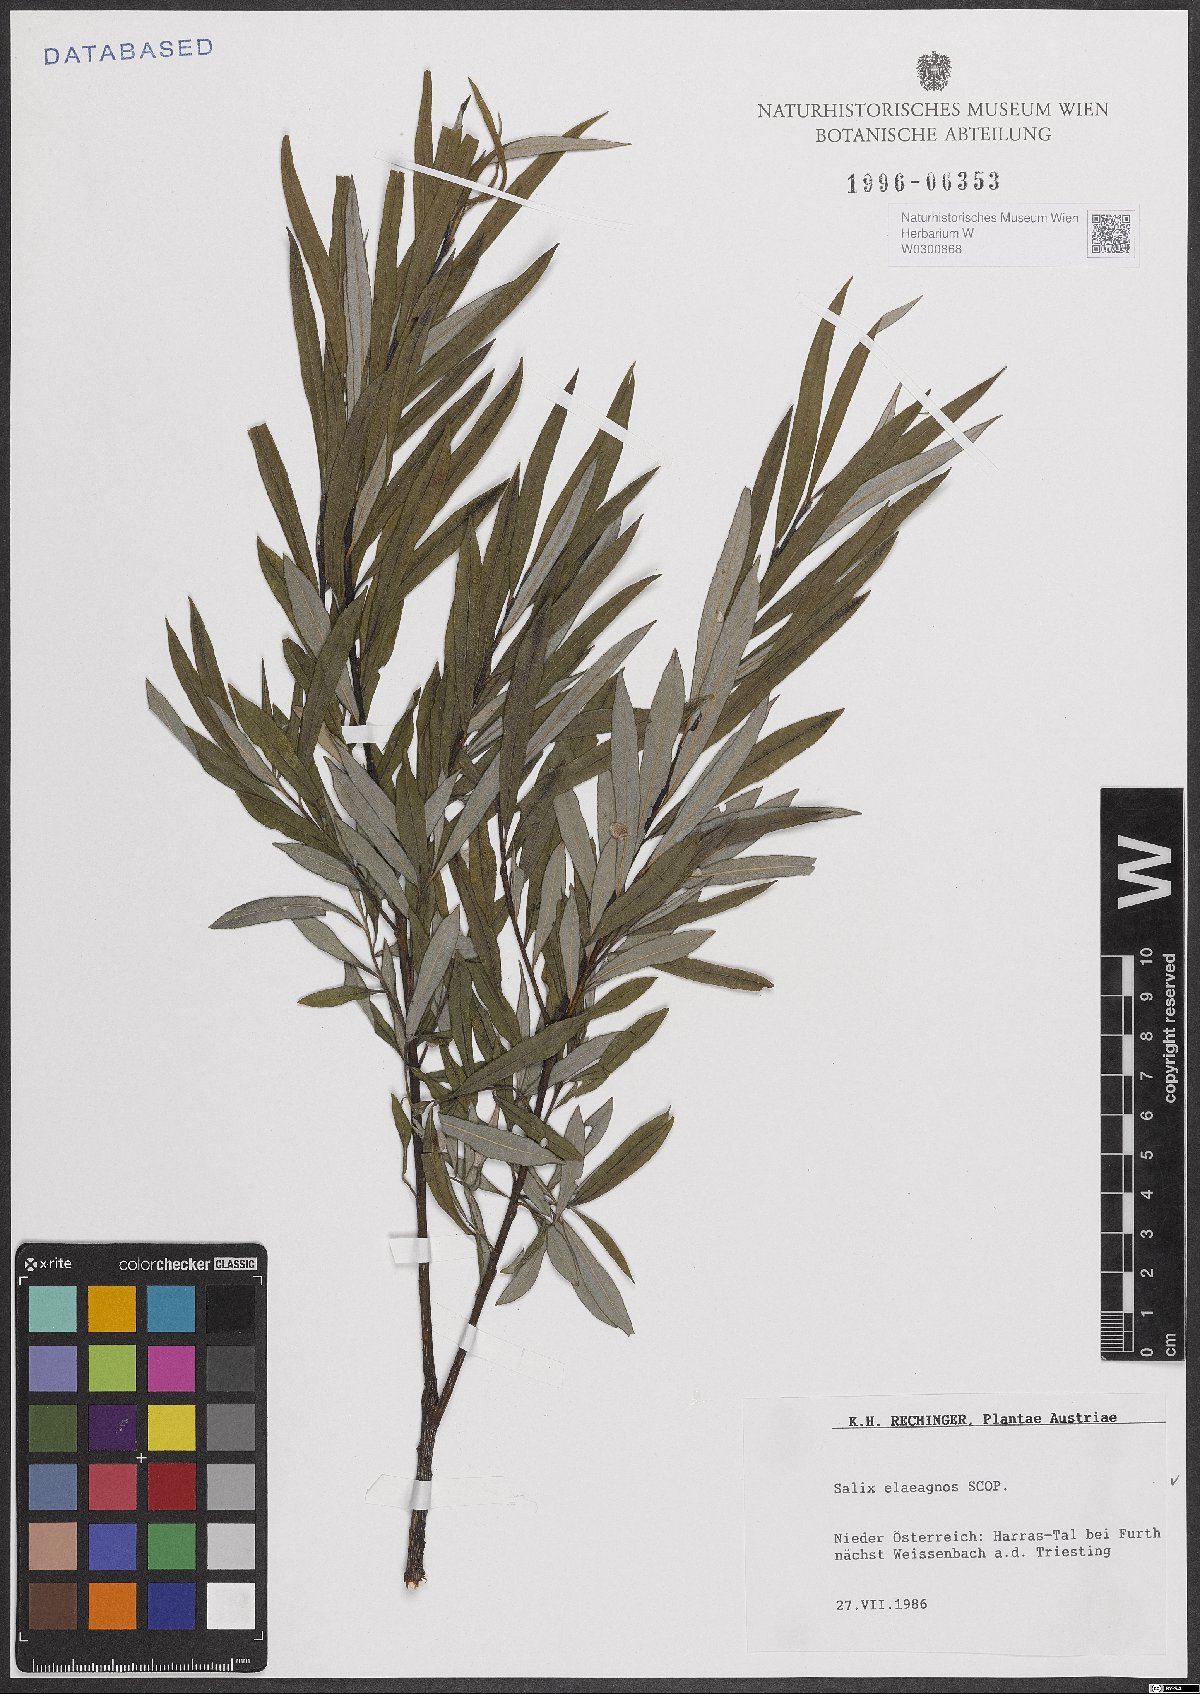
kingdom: Plantae
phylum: Tracheophyta
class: Magnoliopsida
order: Malpighiales
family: Salicaceae
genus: Salix
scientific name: Salix eleagnos
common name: Elaeagnus willow
